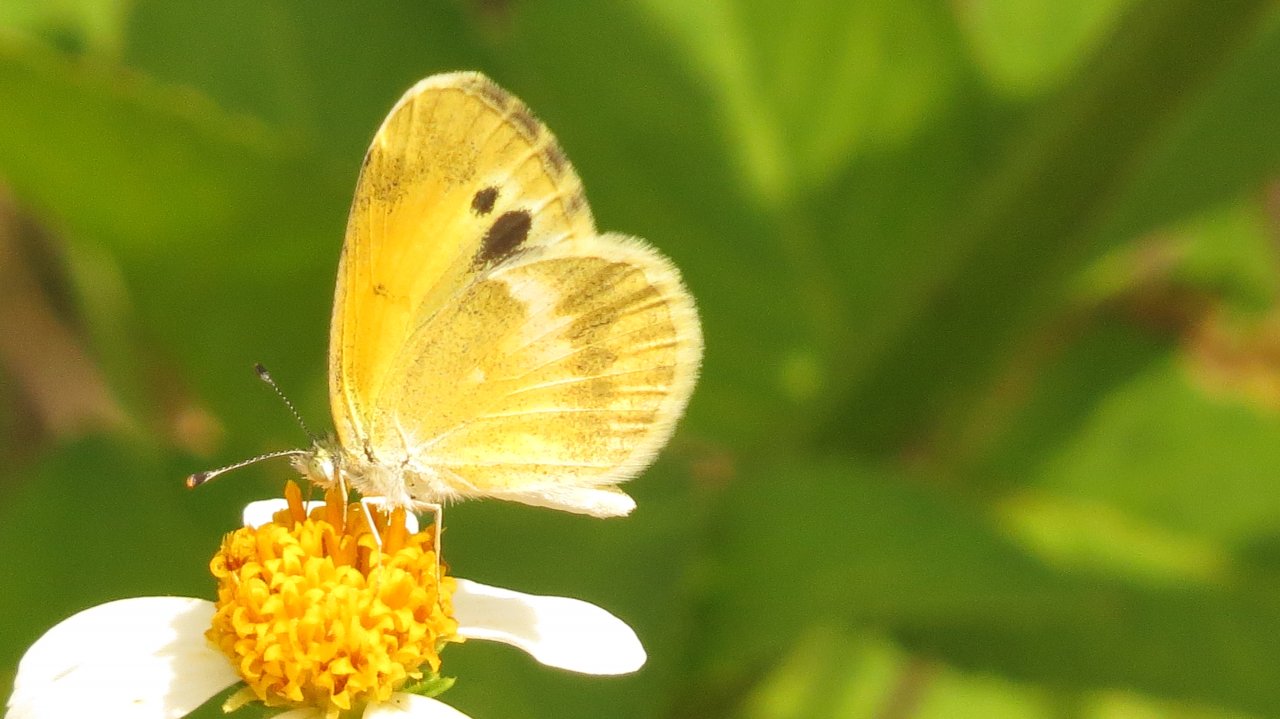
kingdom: Animalia
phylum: Arthropoda
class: Insecta
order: Lepidoptera
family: Pieridae
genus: Nathalis
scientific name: Nathalis iole
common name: Dainty Sulphur
